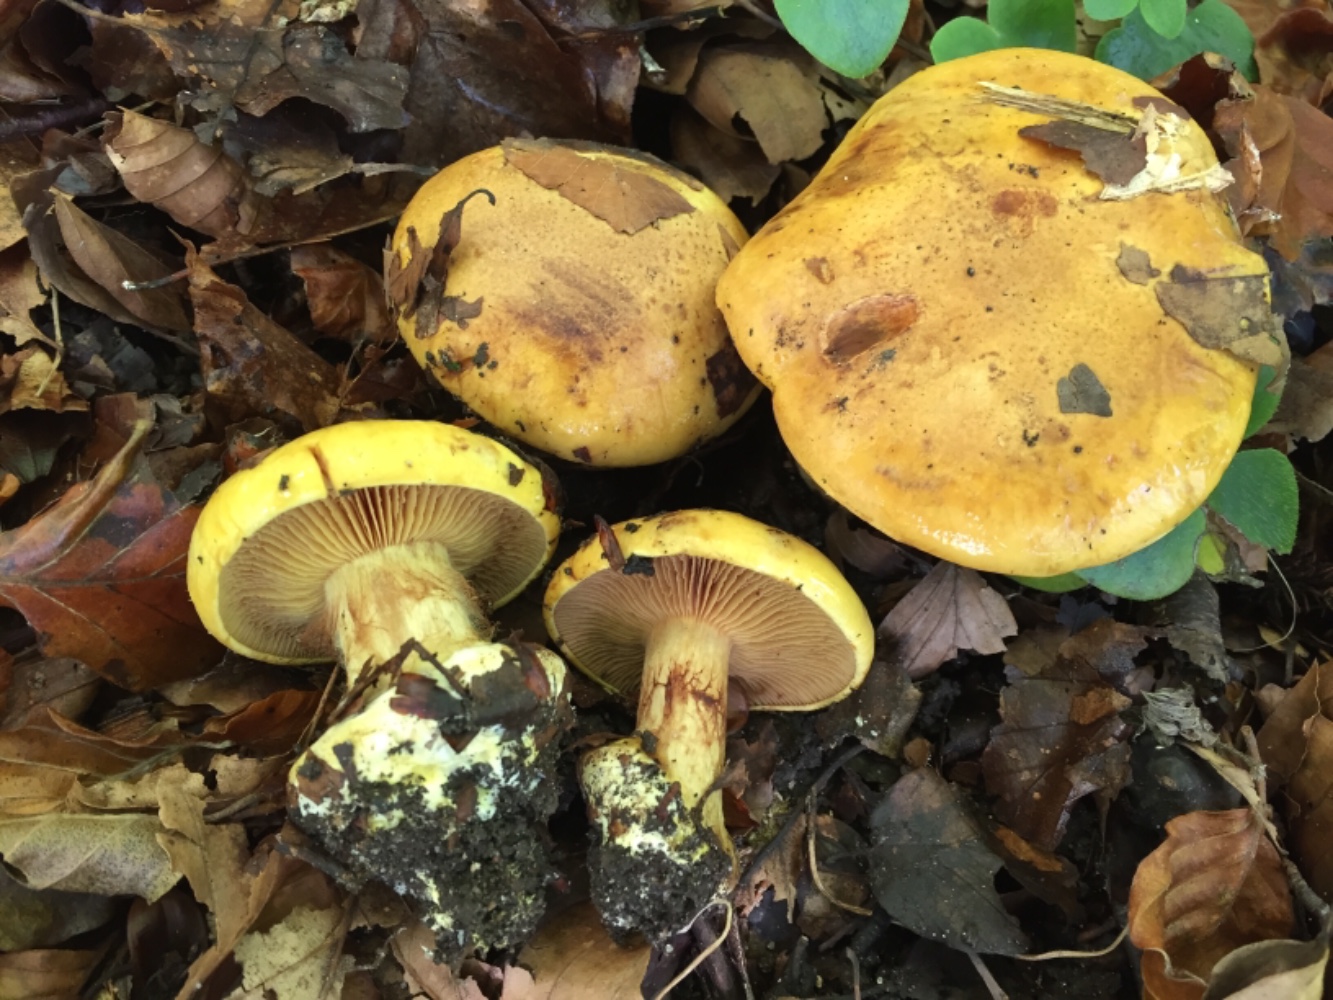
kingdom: Fungi
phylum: Basidiomycota
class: Agaricomycetes
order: Agaricales
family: Cortinariaceae
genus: Calonarius
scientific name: Calonarius alcalinophilus
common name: gyldenbrun slørhat
